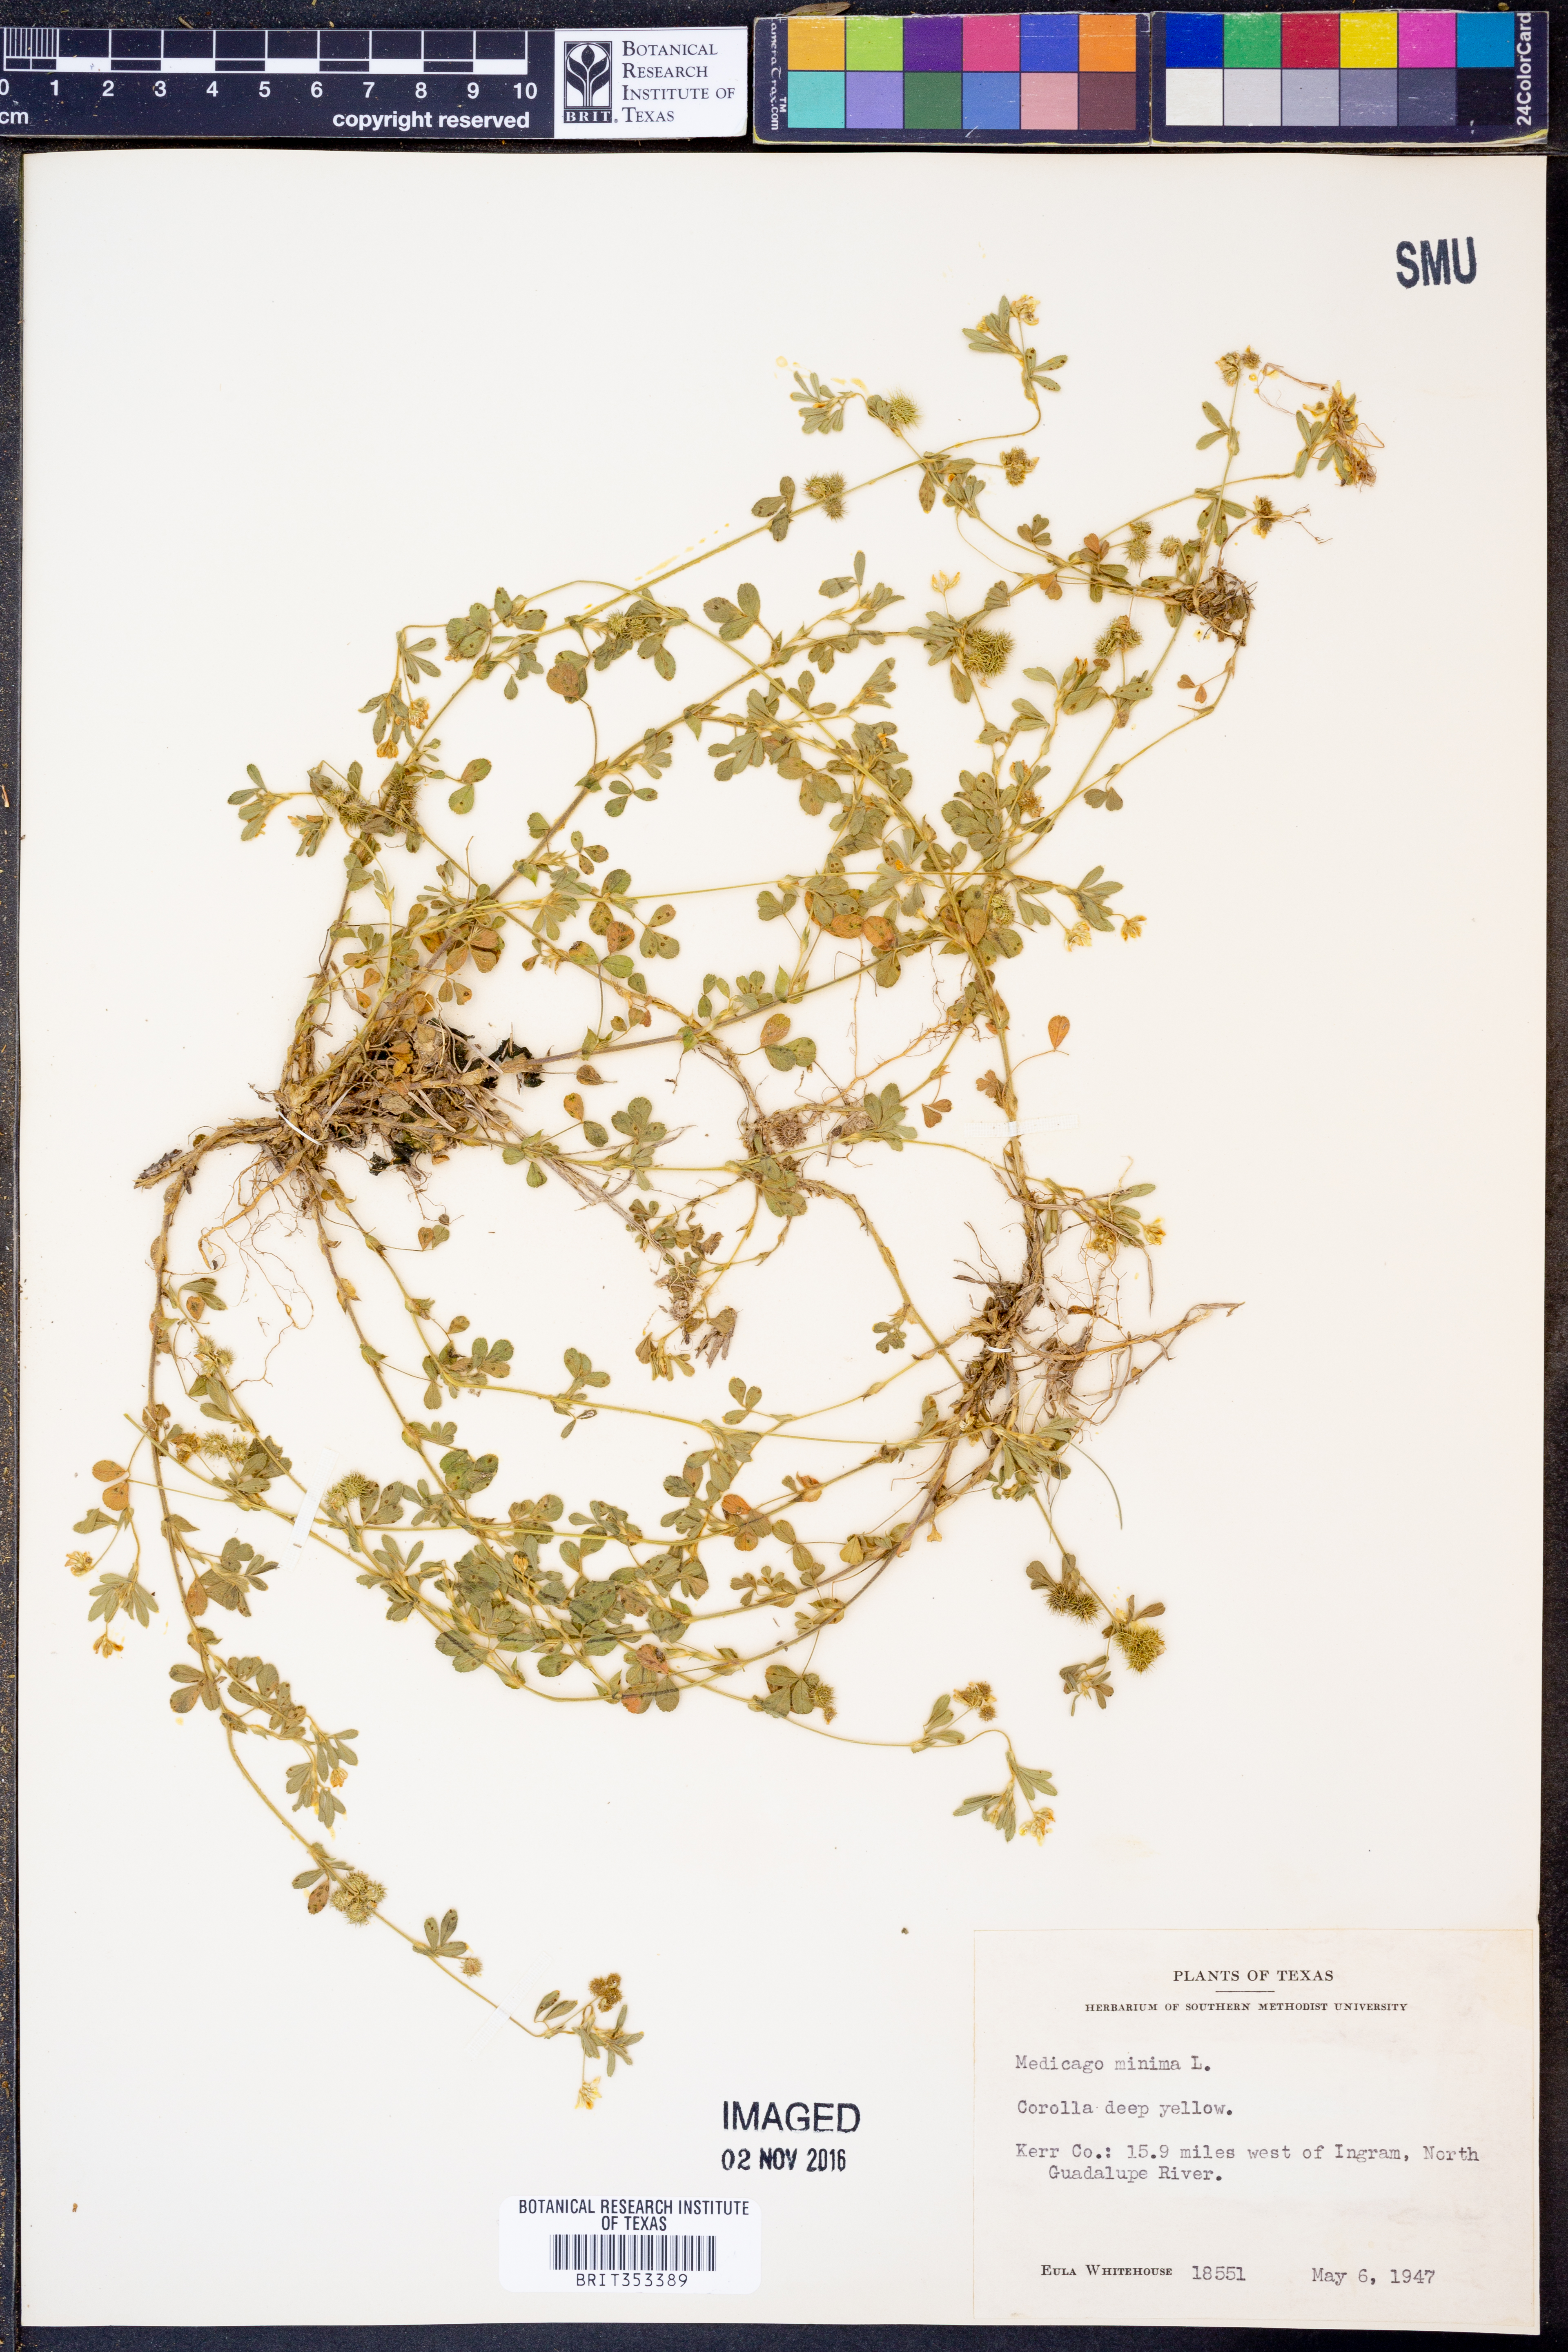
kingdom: Plantae
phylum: Tracheophyta
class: Magnoliopsida
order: Fabales
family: Fabaceae
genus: Medicago
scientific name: Medicago minima
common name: Little bur-clover
